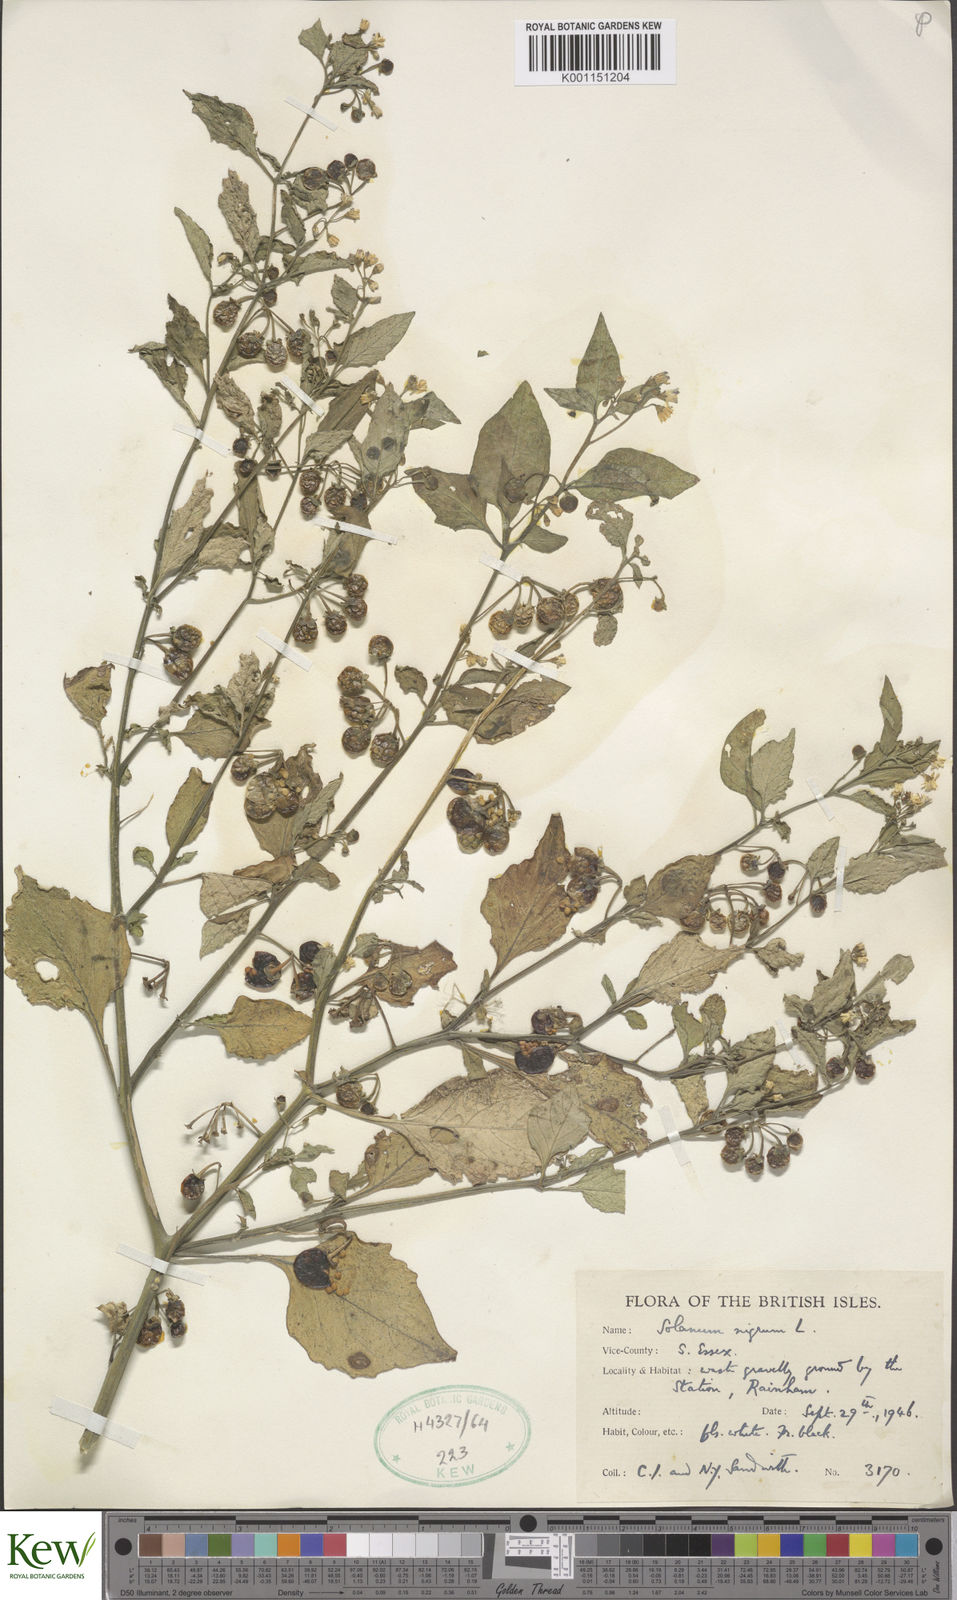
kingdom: Plantae
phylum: Tracheophyta
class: Magnoliopsida
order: Solanales
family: Solanaceae
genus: Solanum
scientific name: Solanum nigrum
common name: Black nightshade
